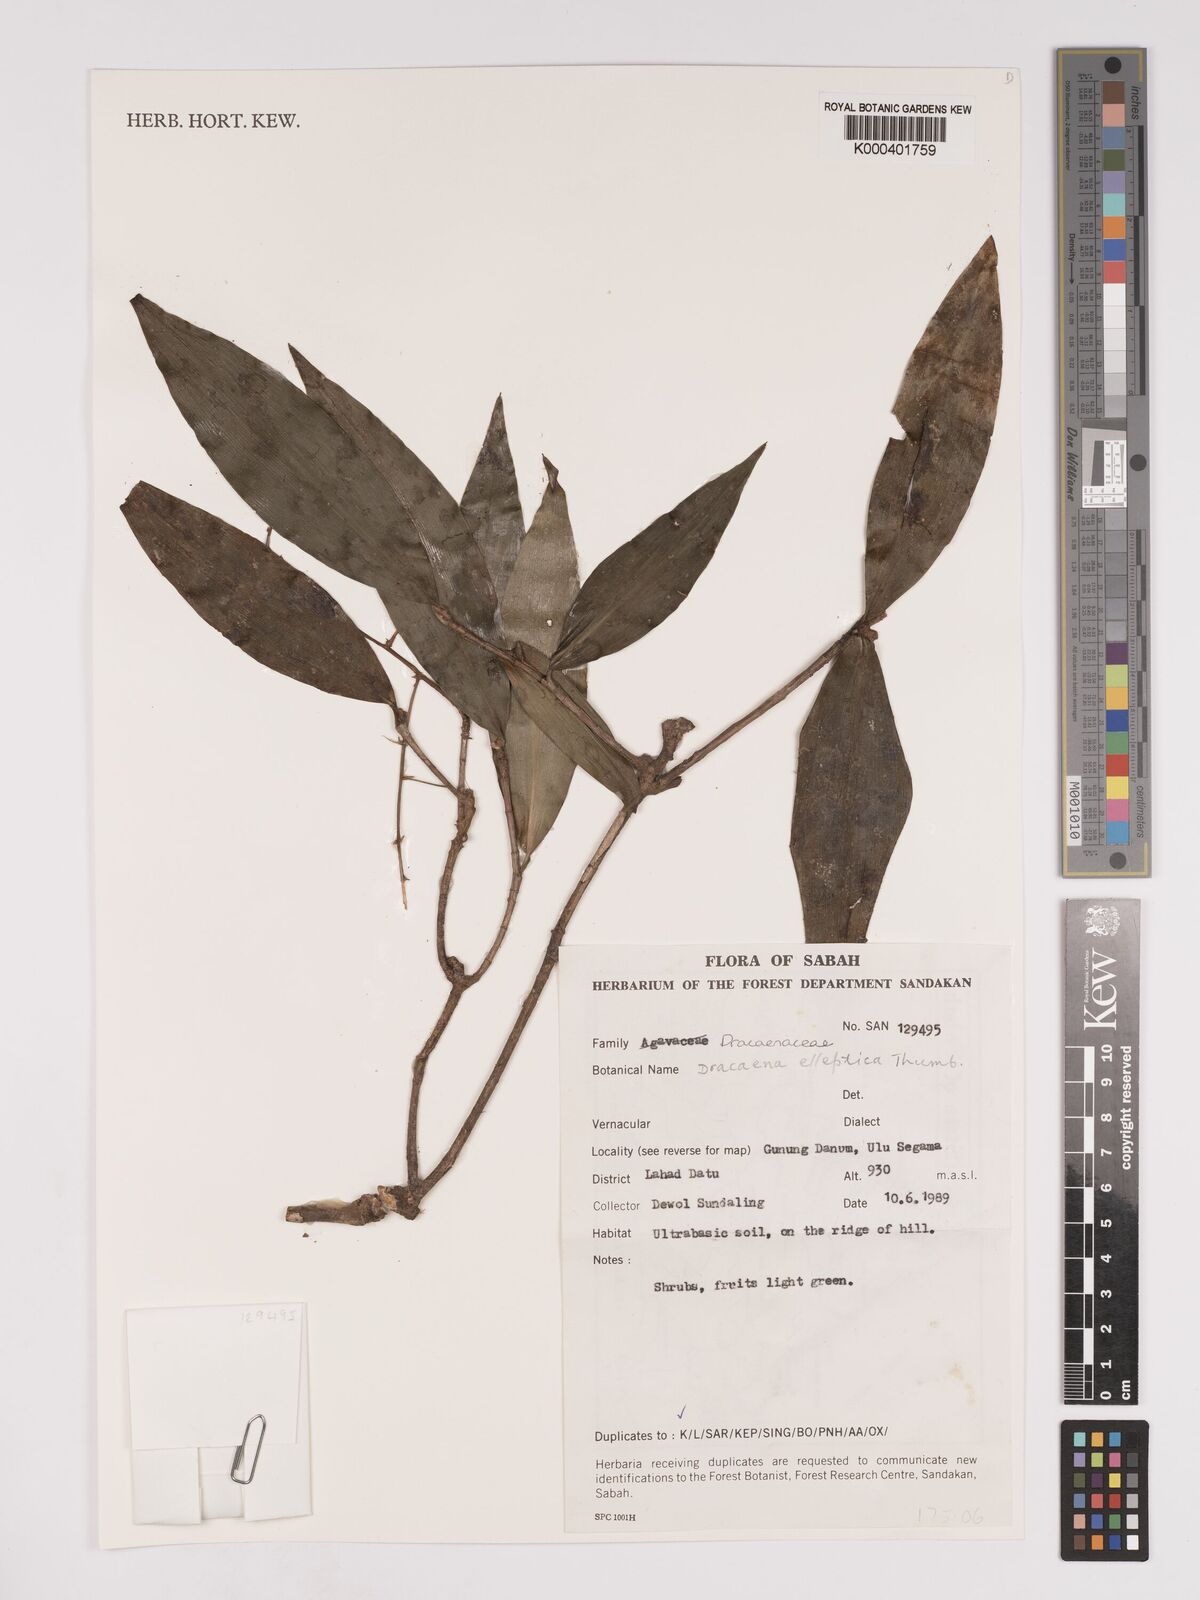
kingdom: Plantae
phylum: Tracheophyta
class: Liliopsida
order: Asparagales
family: Asparagaceae
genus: Dracaena
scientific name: Dracaena elliptica
